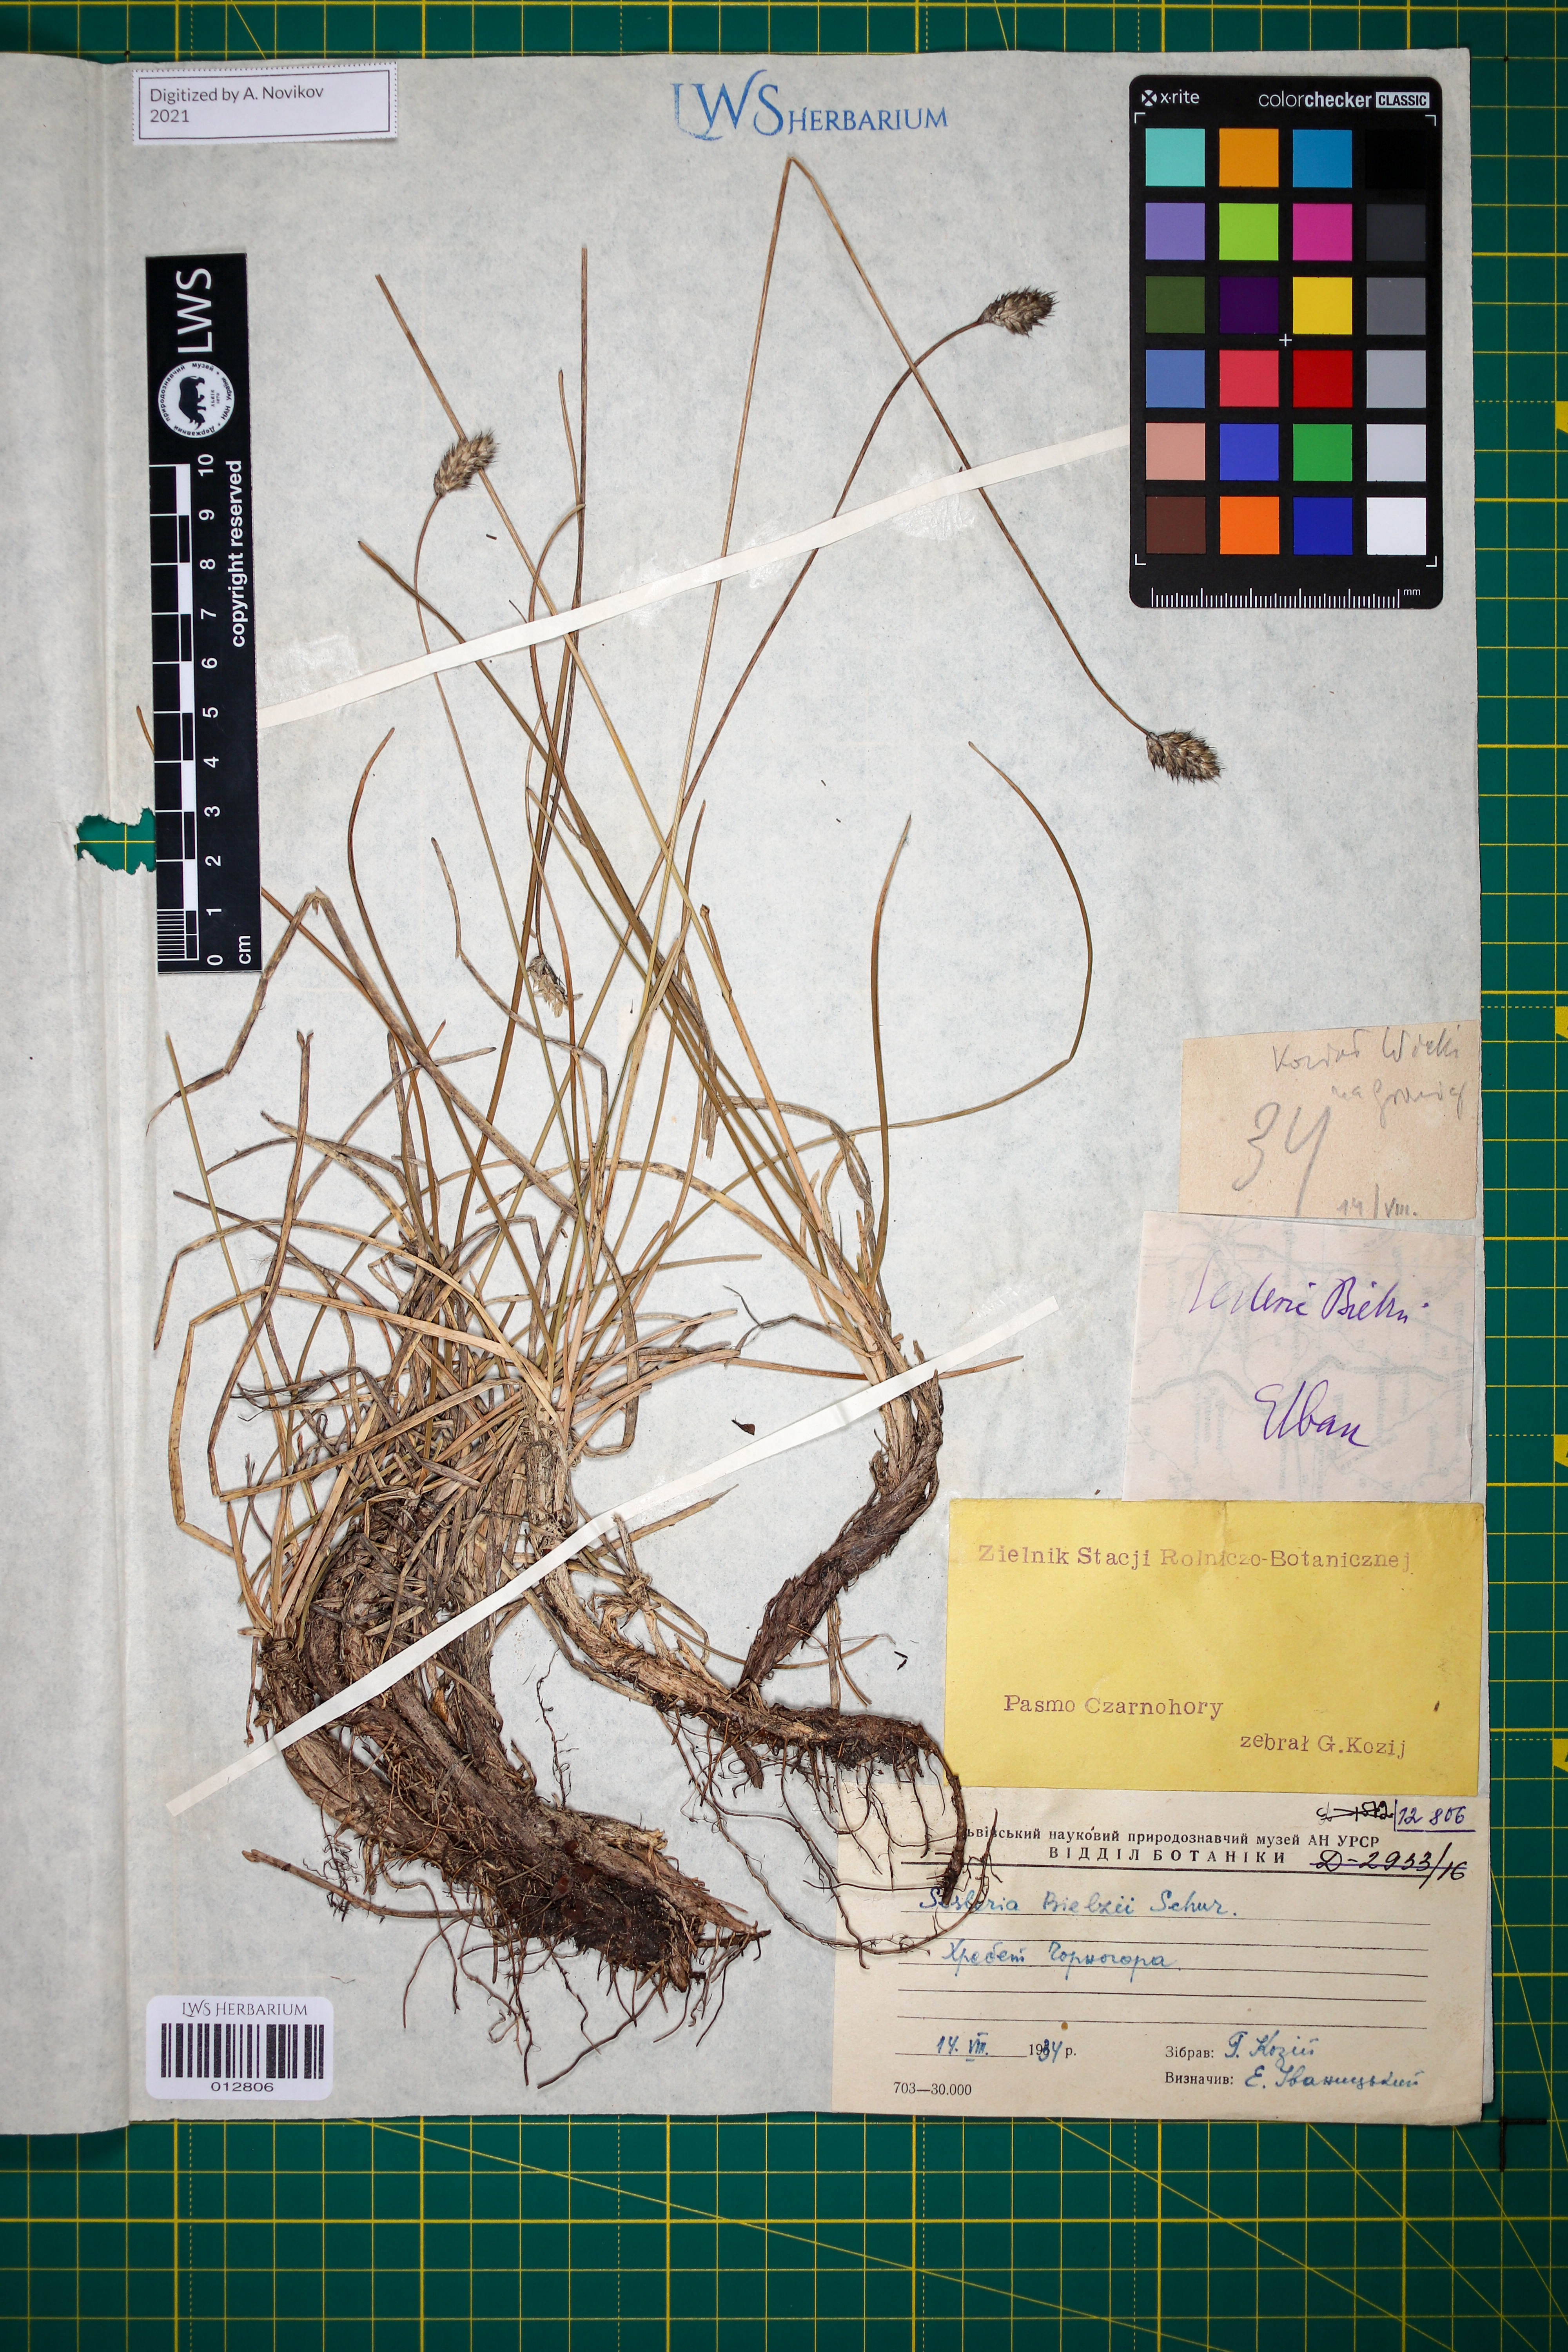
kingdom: Plantae
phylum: Tracheophyta
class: Liliopsida
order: Poales
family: Poaceae
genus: Sesleria
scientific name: Sesleria bielzii
